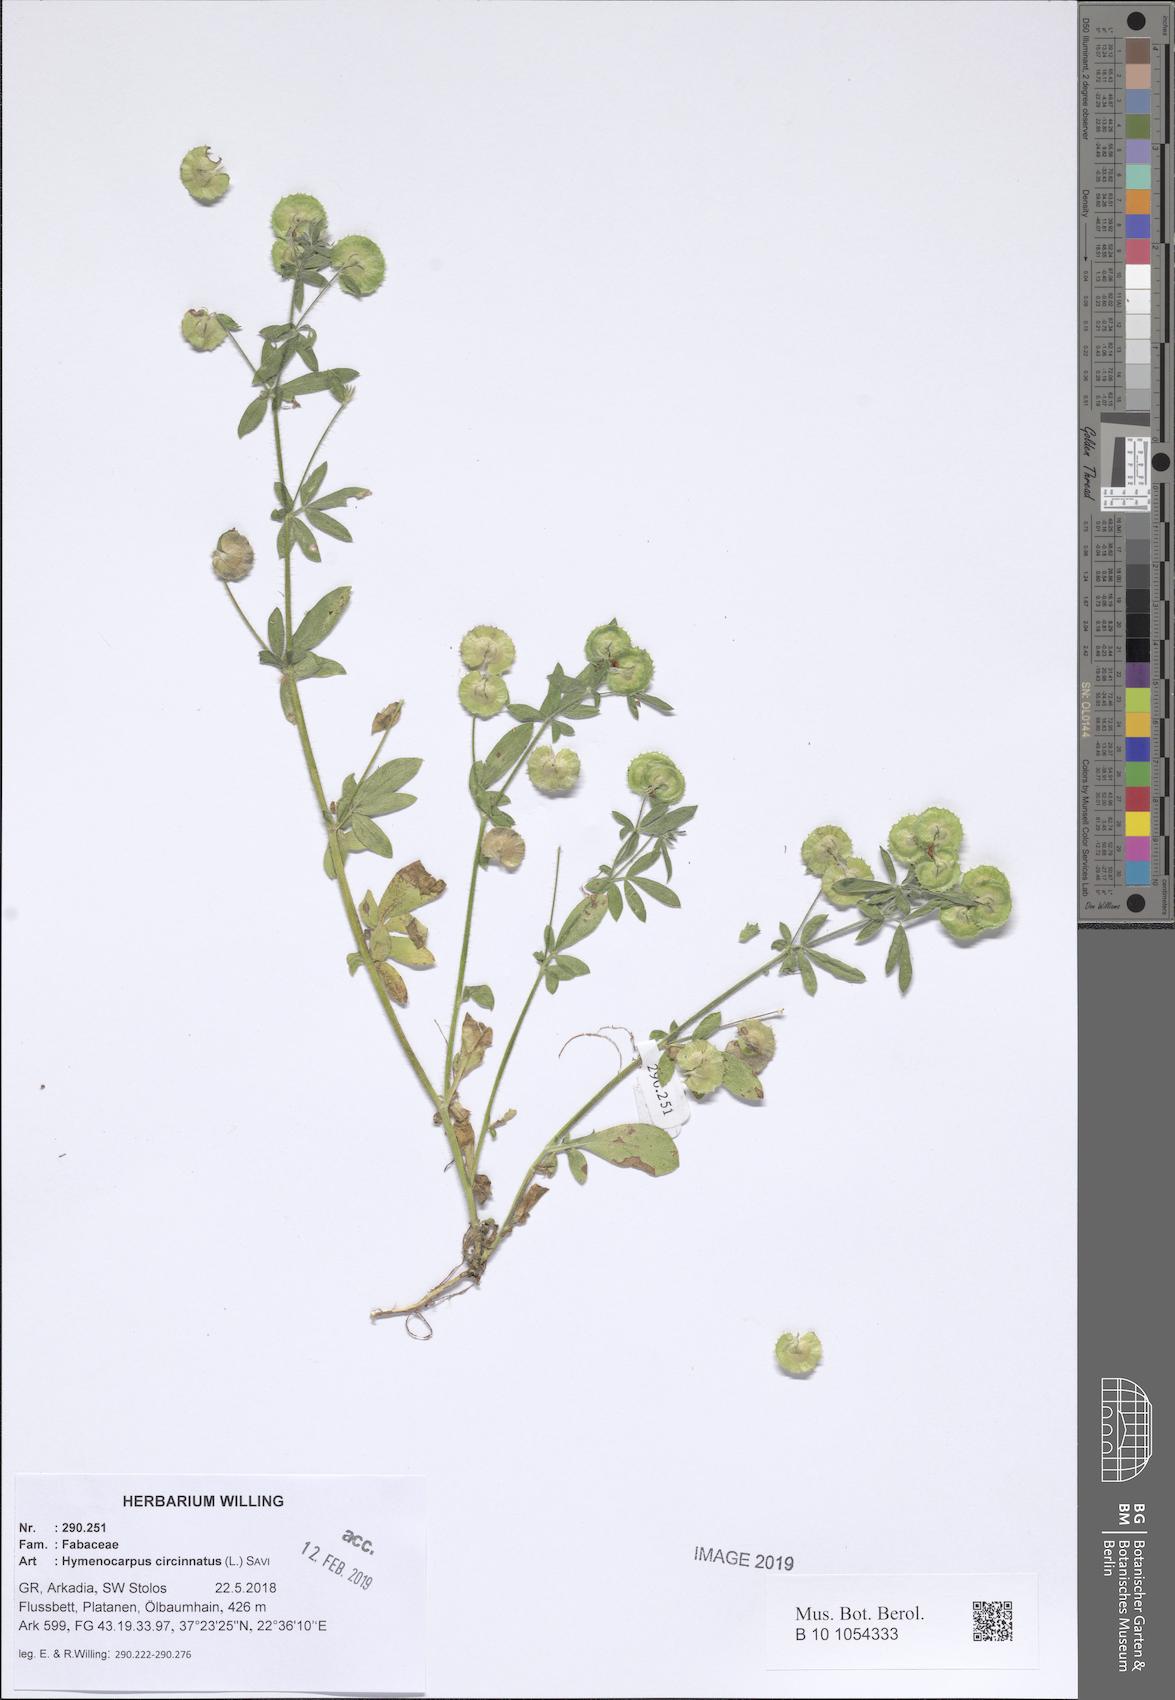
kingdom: Plantae
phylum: Tracheophyta
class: Magnoliopsida
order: Fabales
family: Fabaceae
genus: Anthyllis
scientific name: Anthyllis circinnata
